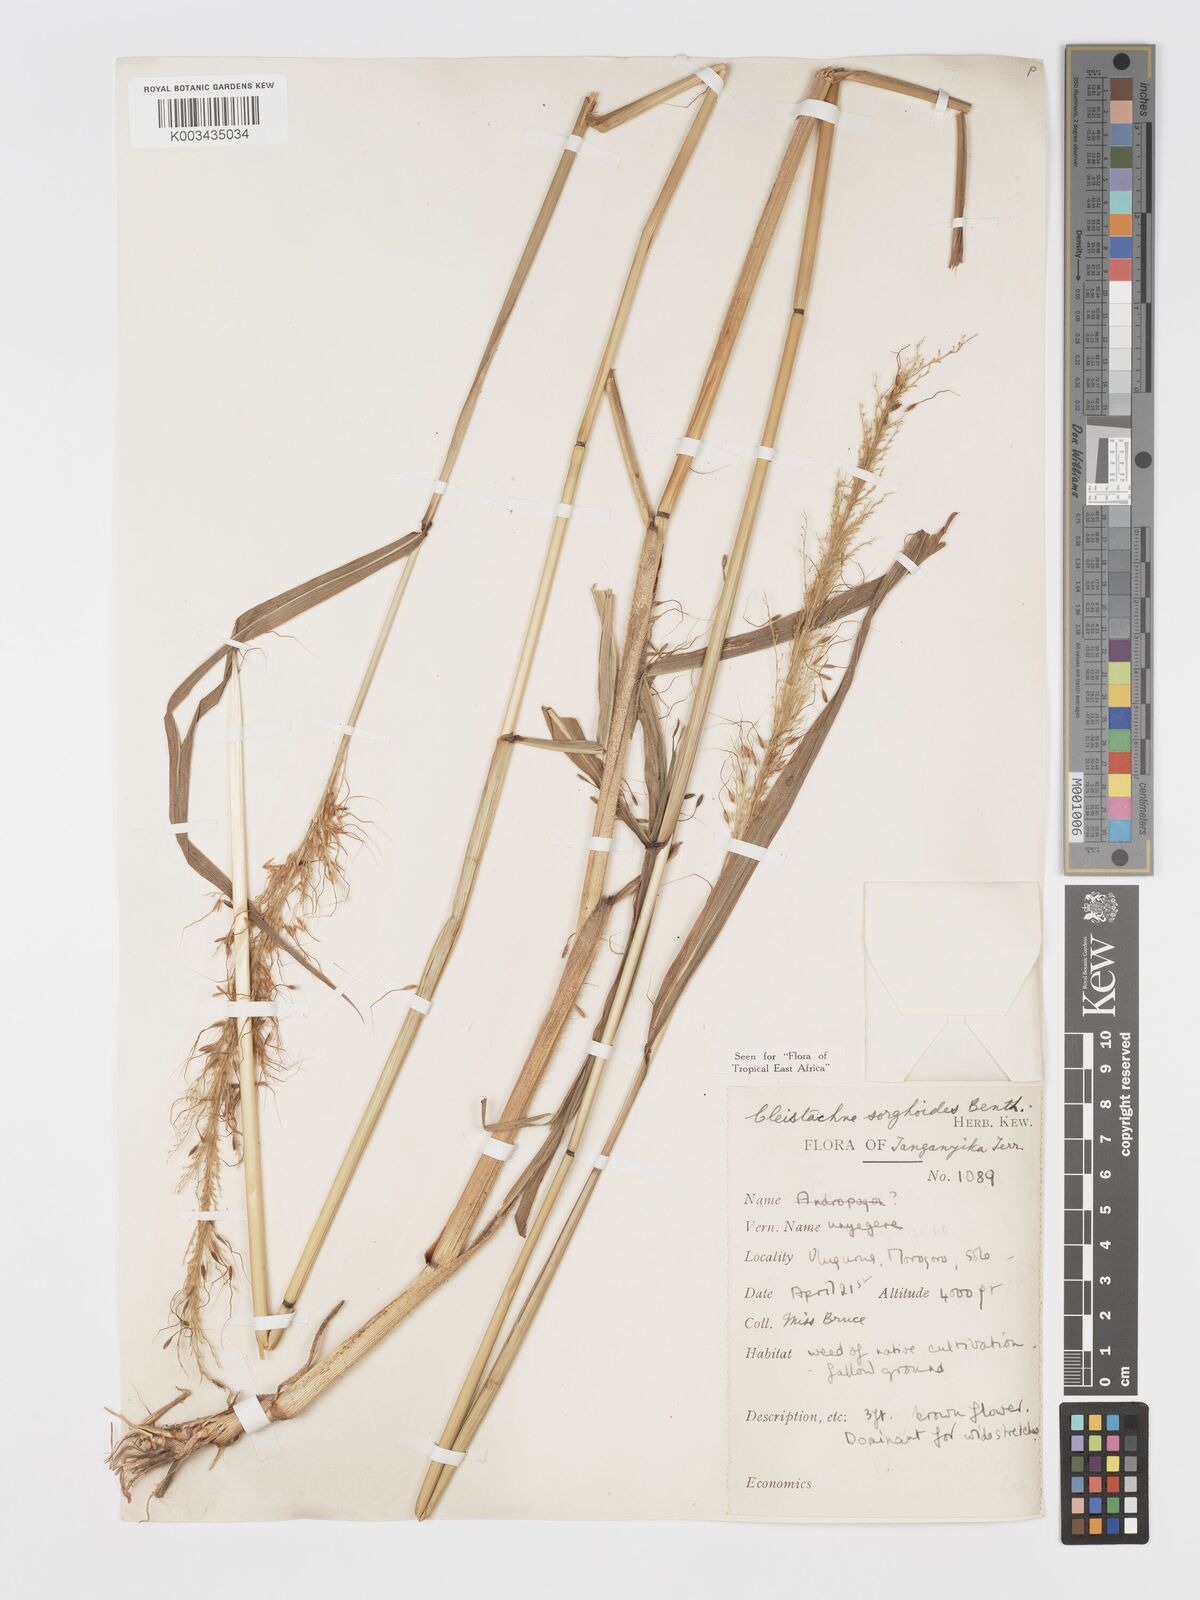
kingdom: Plantae
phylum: Tracheophyta
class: Liliopsida
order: Poales
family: Poaceae
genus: Cleistachne
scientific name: Cleistachne sorghoides
